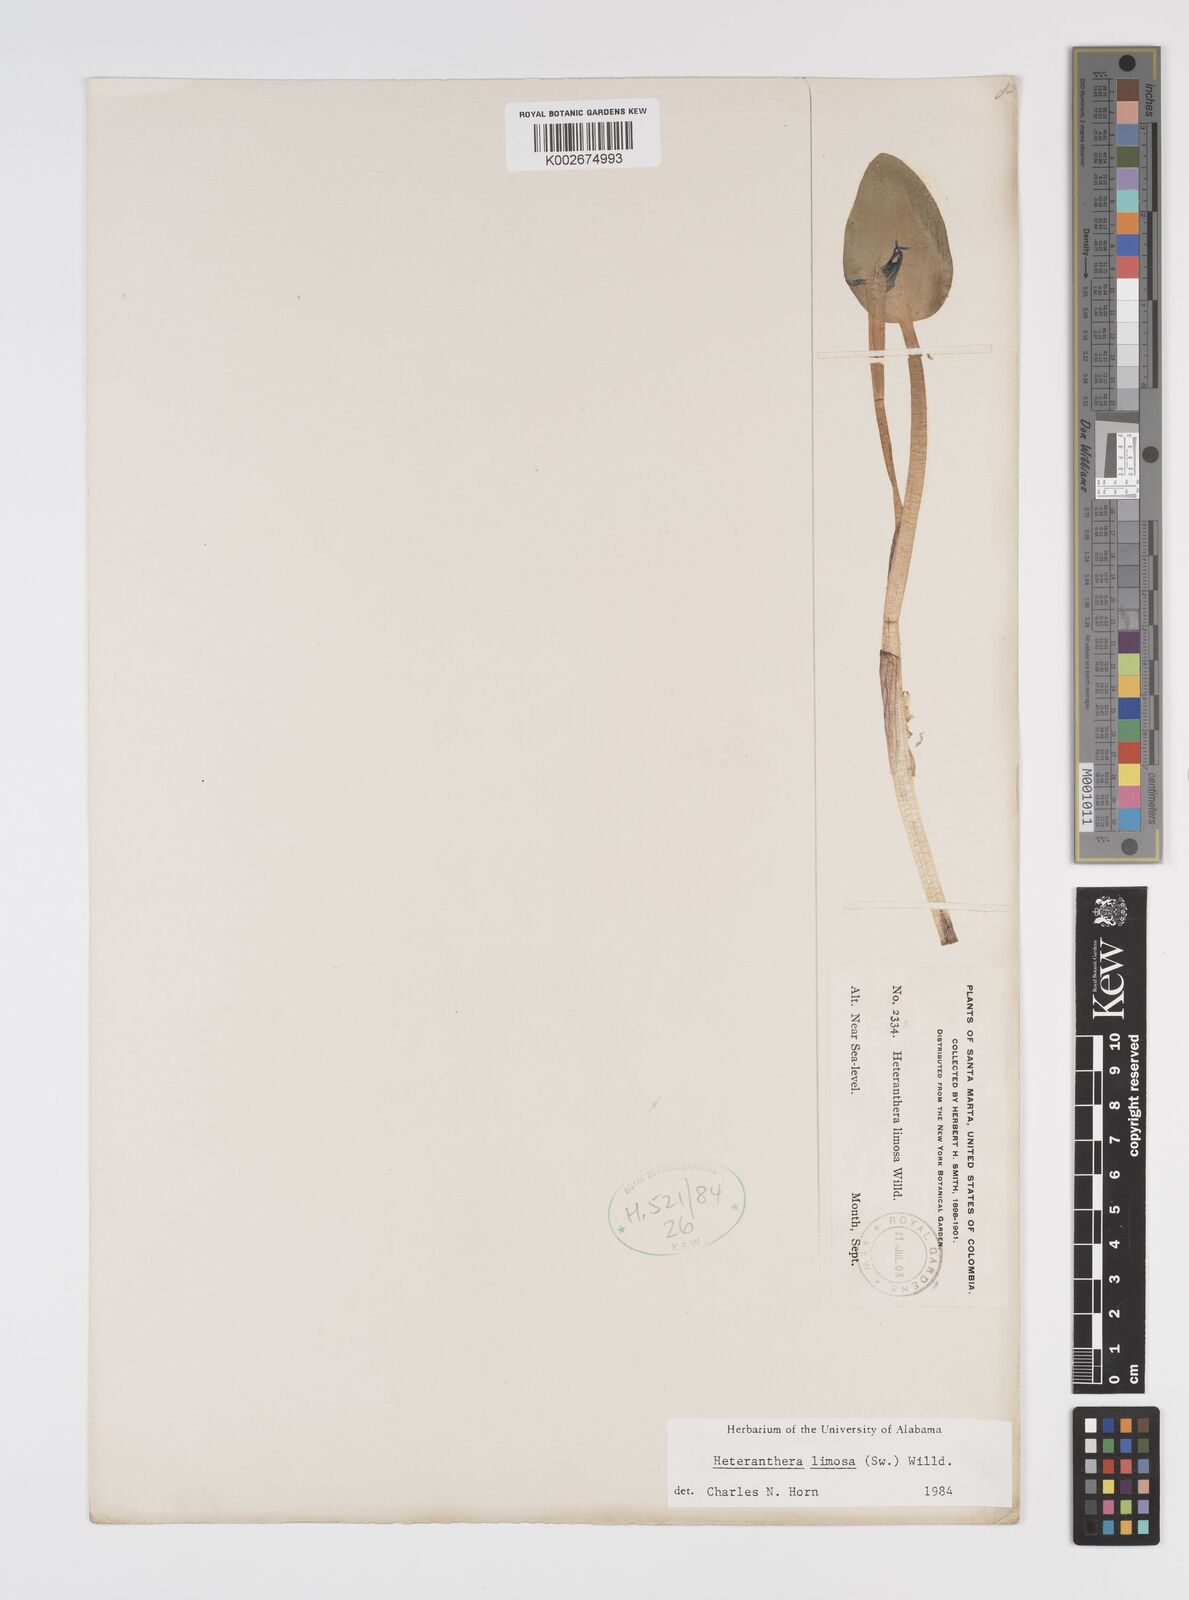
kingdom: Plantae
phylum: Tracheophyta
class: Liliopsida
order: Commelinales
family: Pontederiaceae
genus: Heteranthera
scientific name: Heteranthera limosa
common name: Blue mud-plantain
